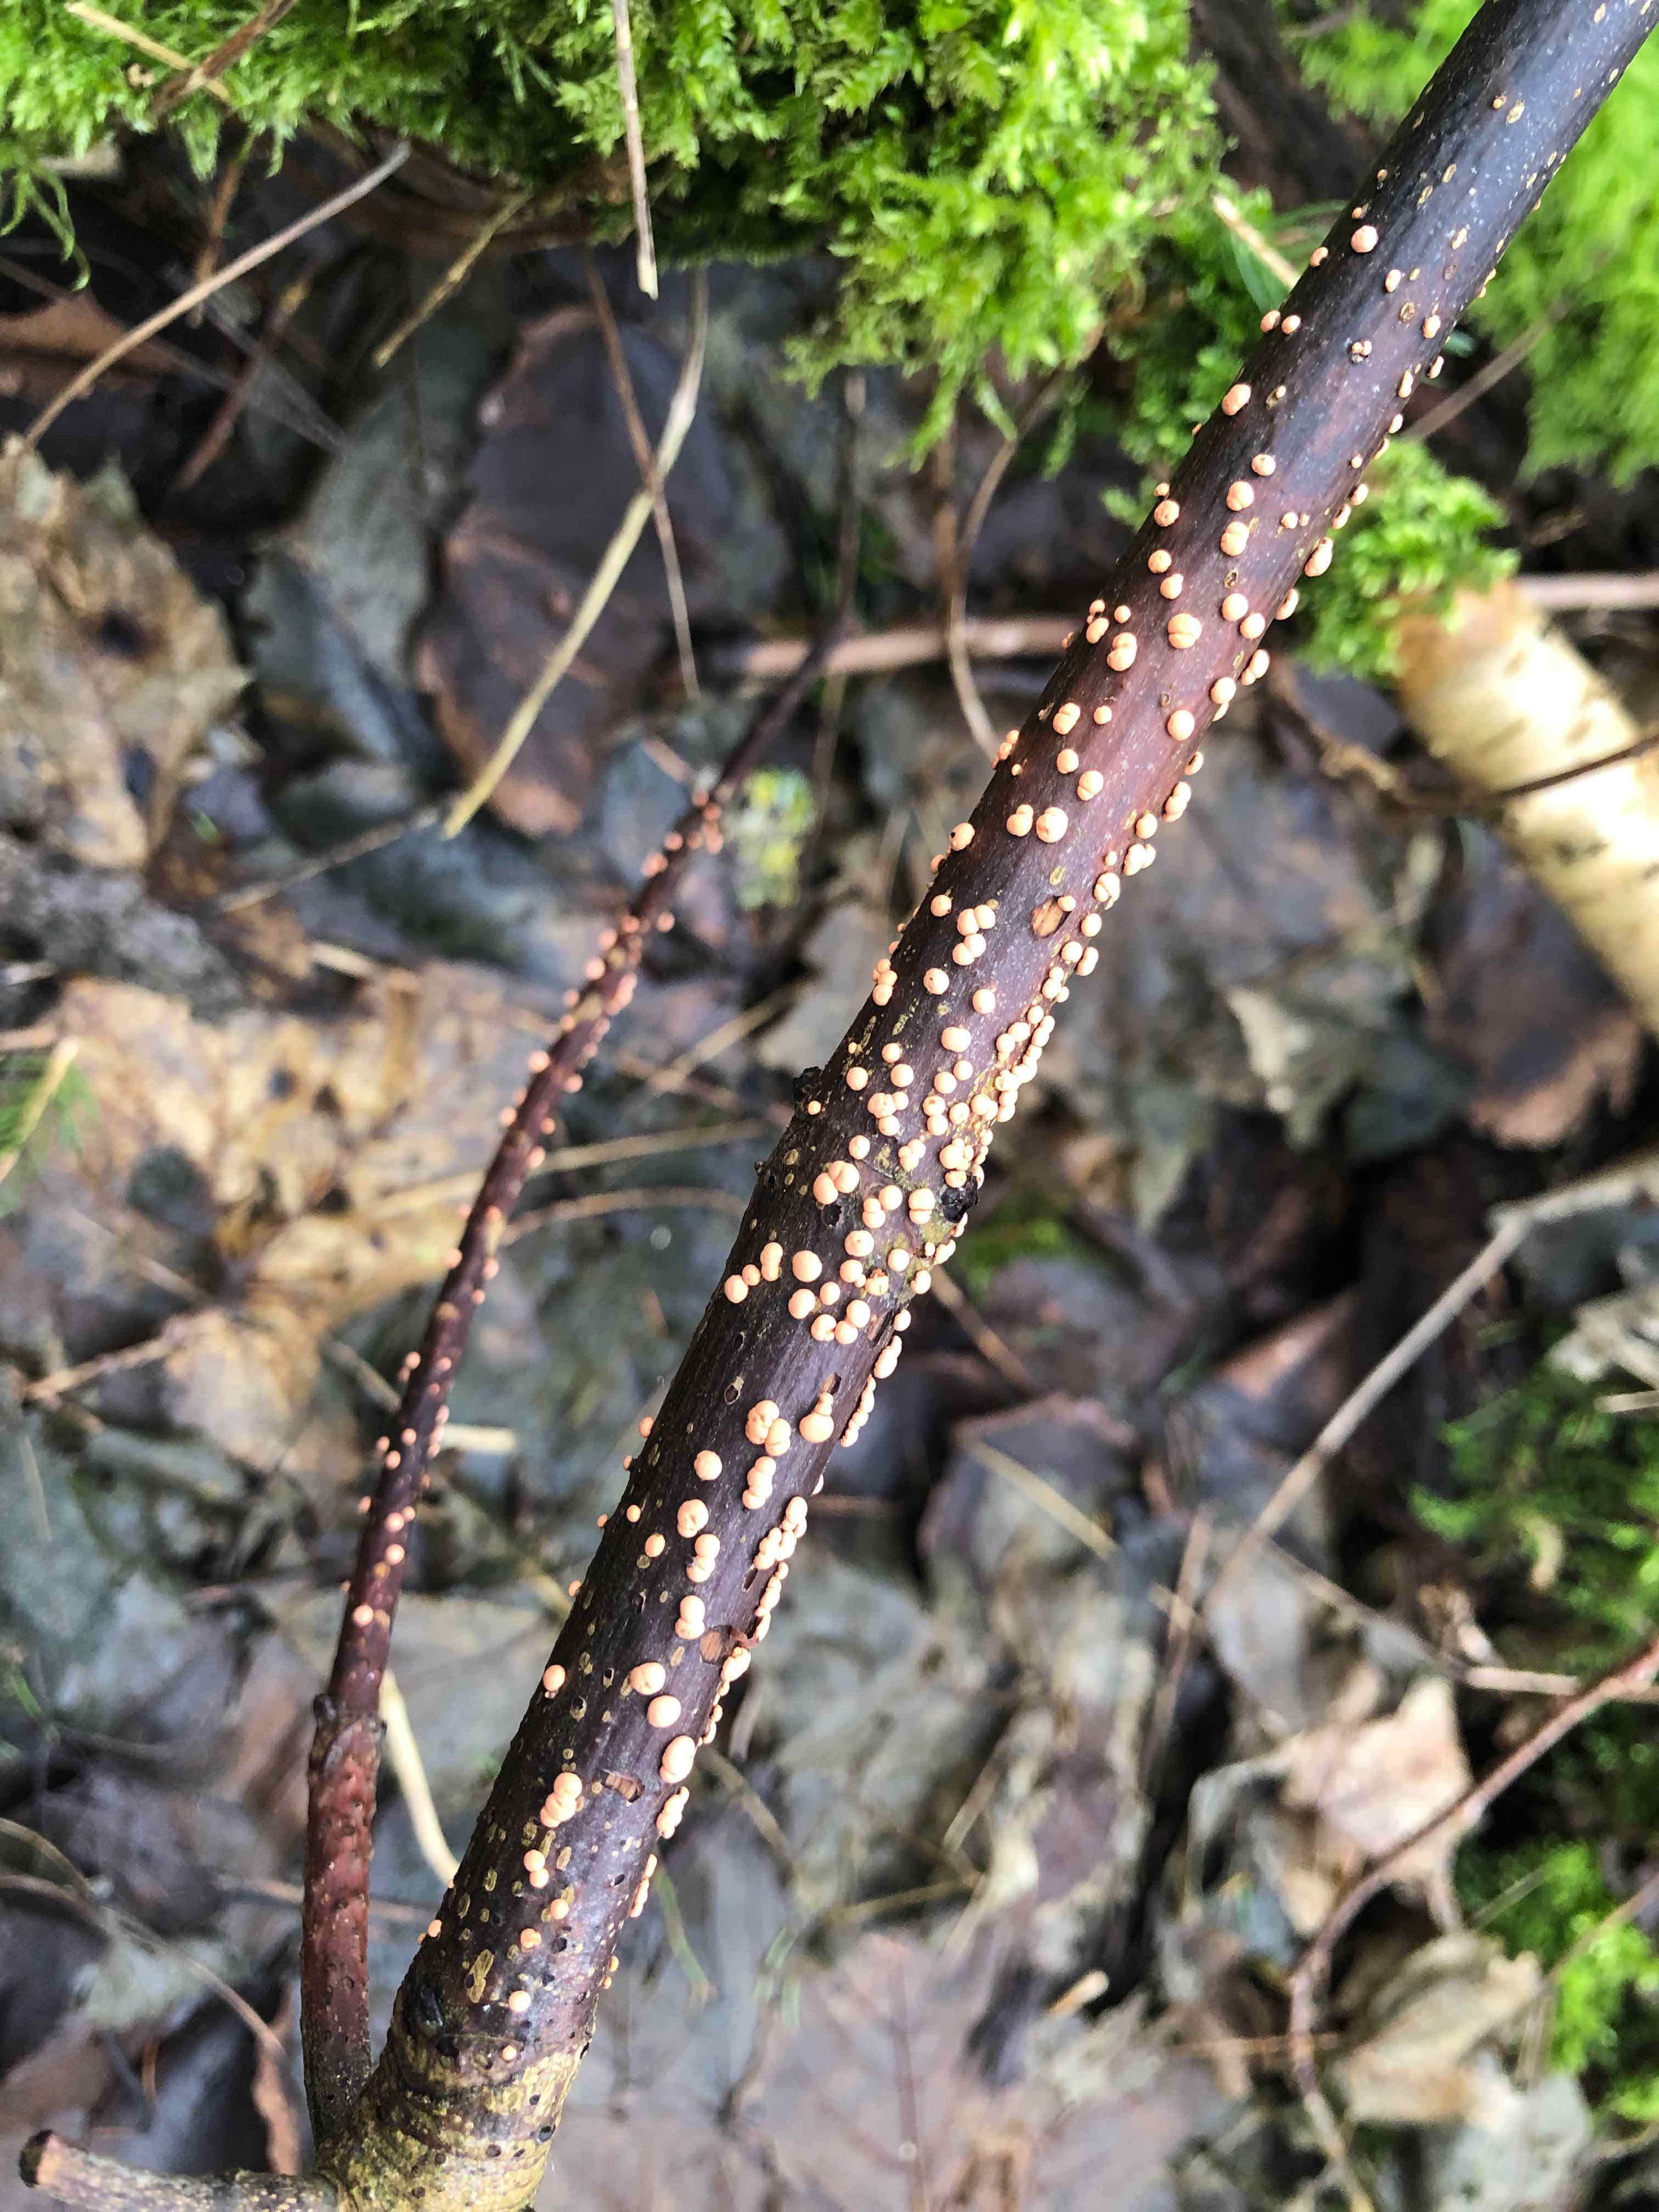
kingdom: Fungi
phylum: Ascomycota
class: Sordariomycetes
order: Hypocreales
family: Nectriaceae
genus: Nectria
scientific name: Nectria cinnabarina
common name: almindelig cinnobersvamp
